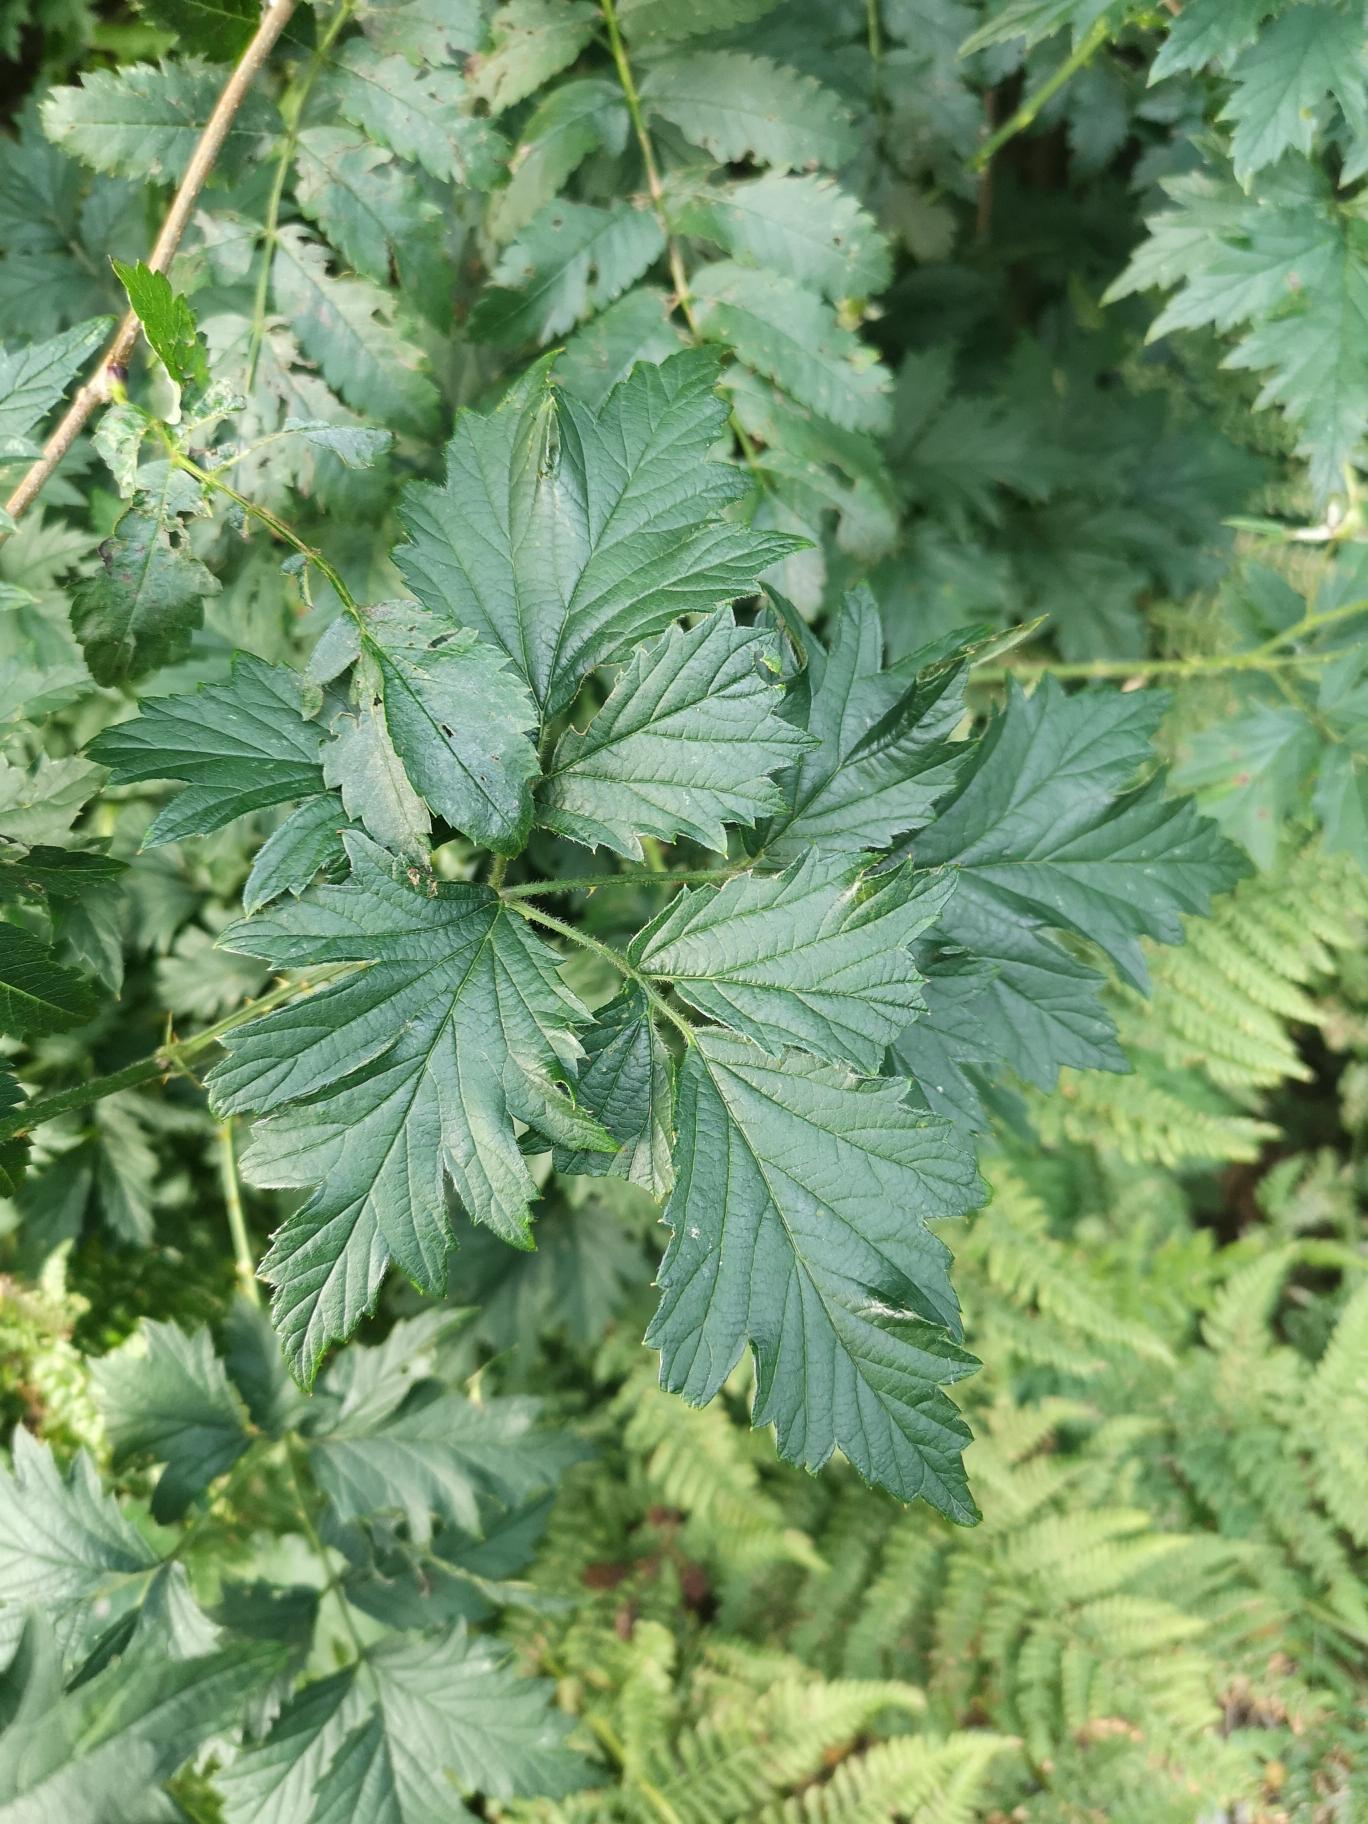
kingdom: Plantae
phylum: Tracheophyta
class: Magnoliopsida
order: Rosales
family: Rosaceae
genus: Rubus
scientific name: Rubus laciniatus
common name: Fliget brombær
